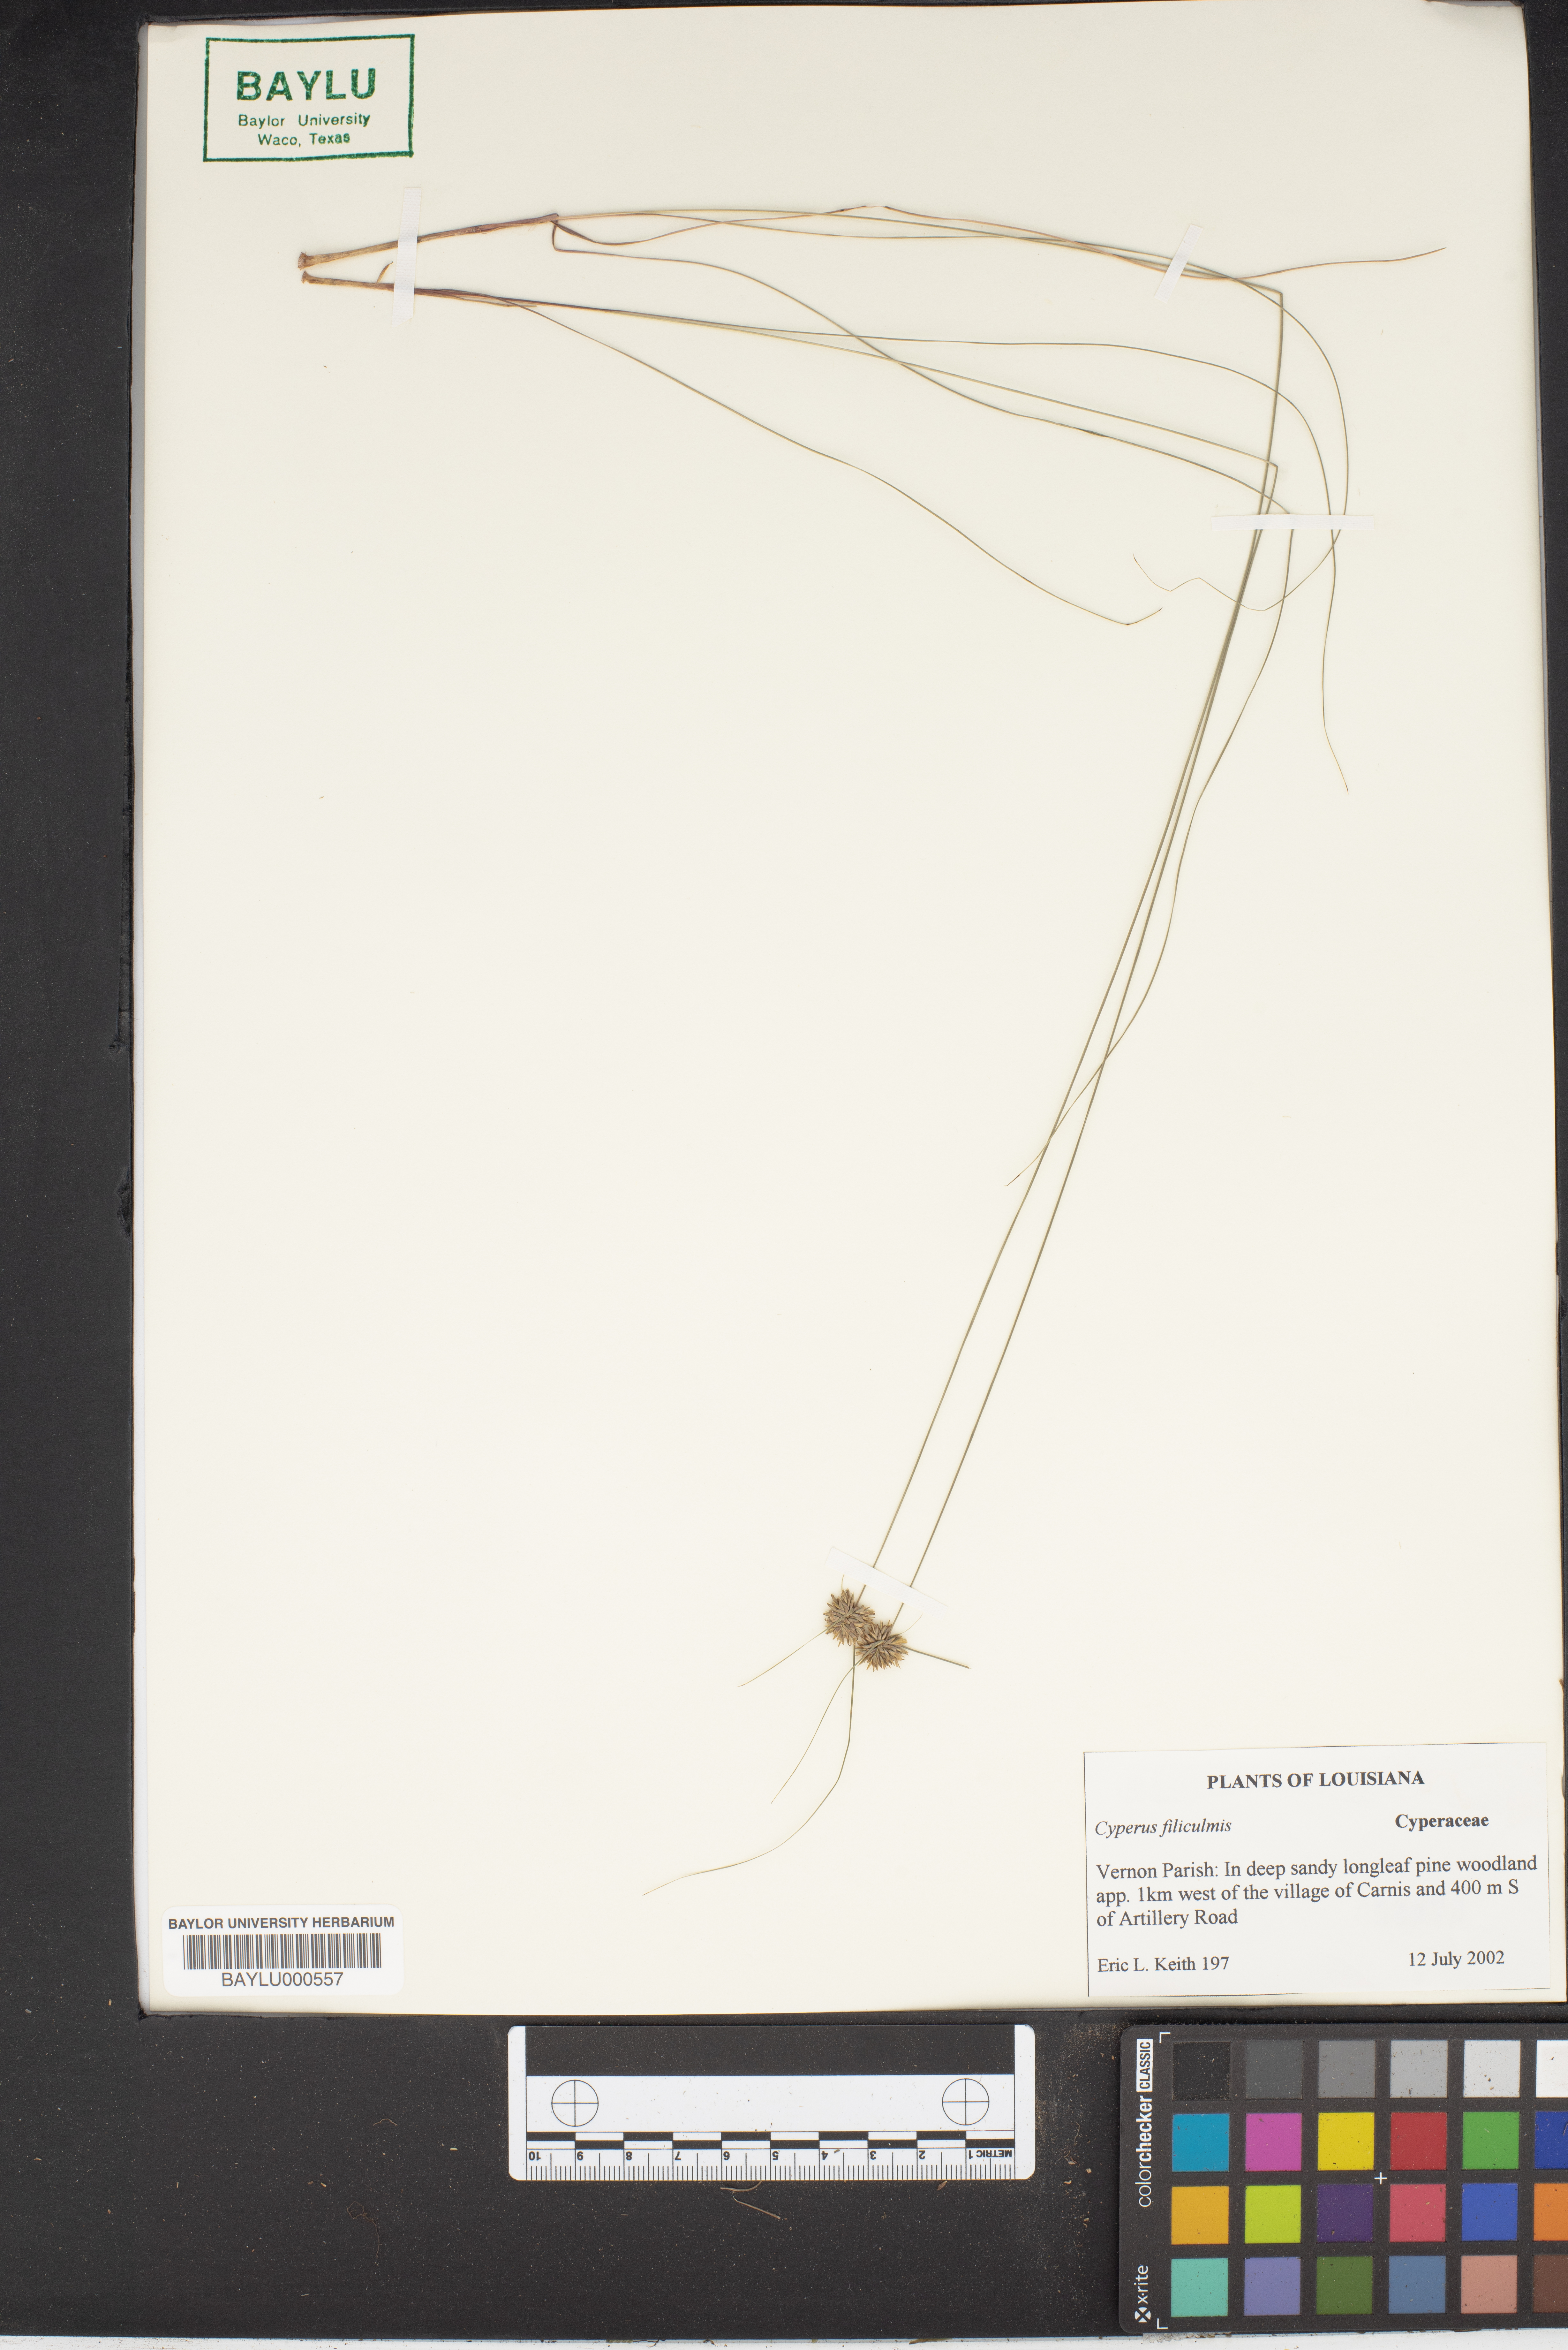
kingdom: Plantae
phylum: Tracheophyta
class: Liliopsida
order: Poales
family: Cyperaceae
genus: Cyperus
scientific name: Cyperus lanceolatus
